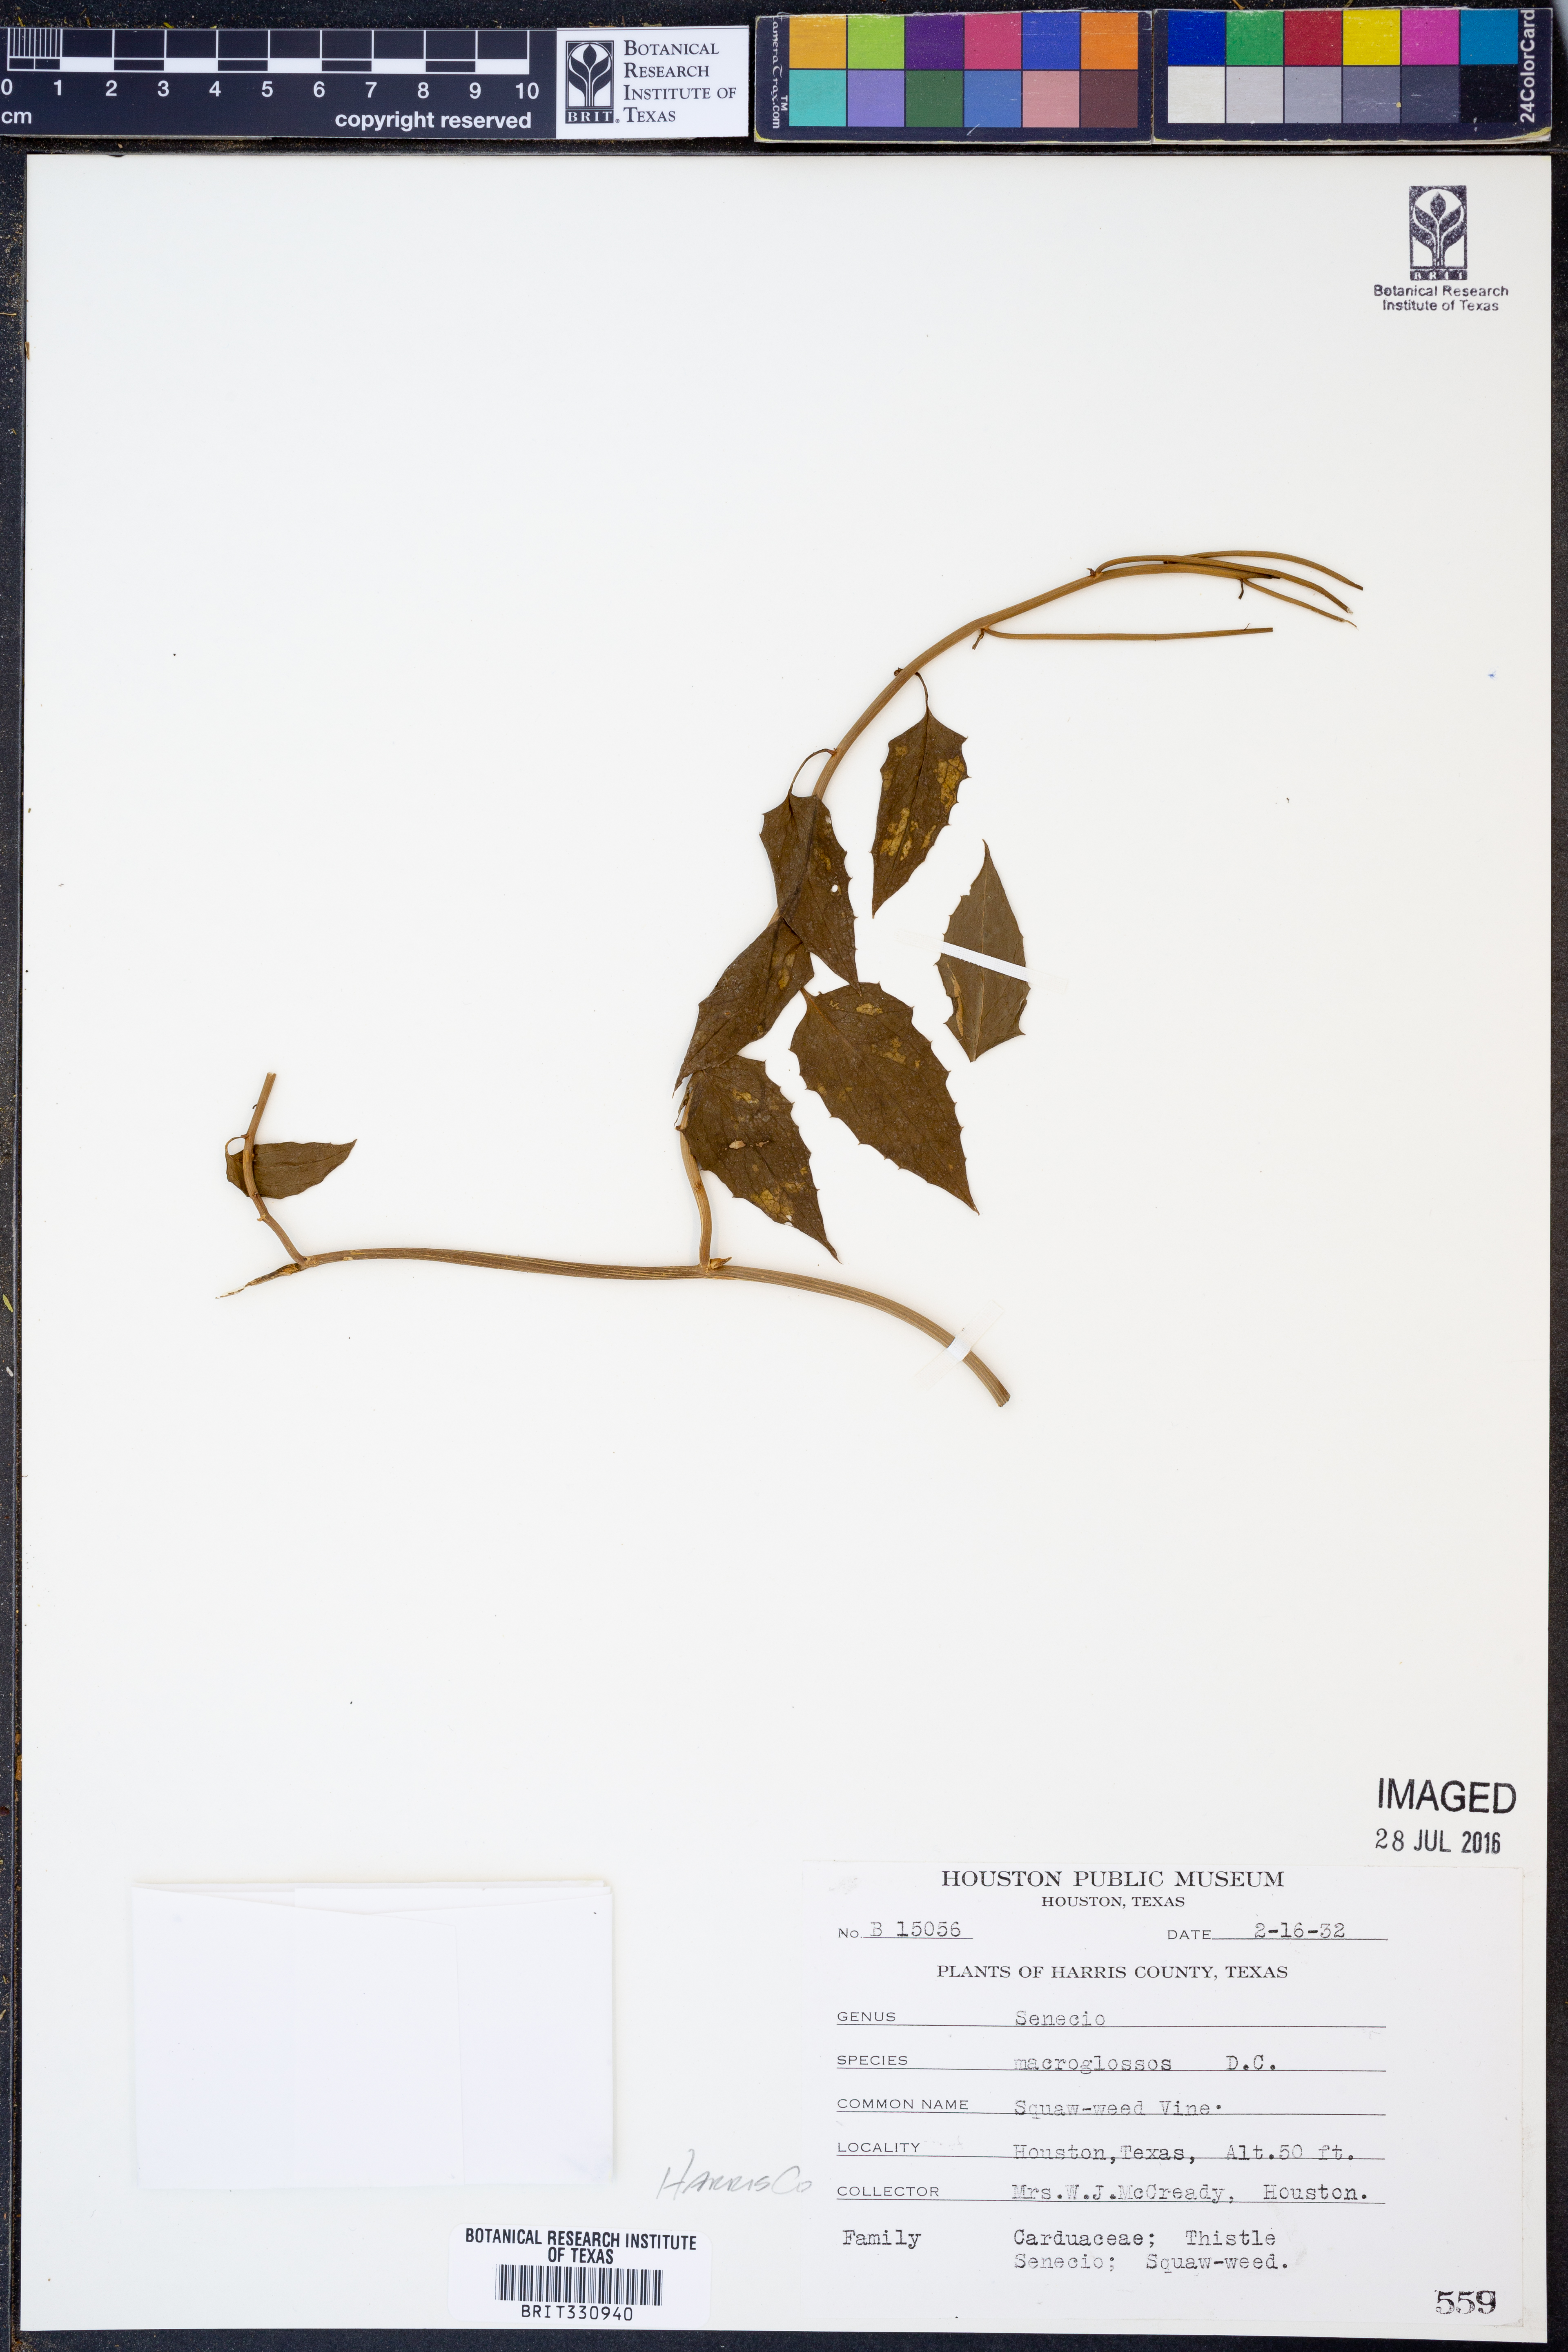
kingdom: Plantae
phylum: Tracheophyta
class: Magnoliopsida
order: Asterales
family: Asteraceae
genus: Senecio
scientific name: Senecio macroglossus
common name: Natal-ivy
